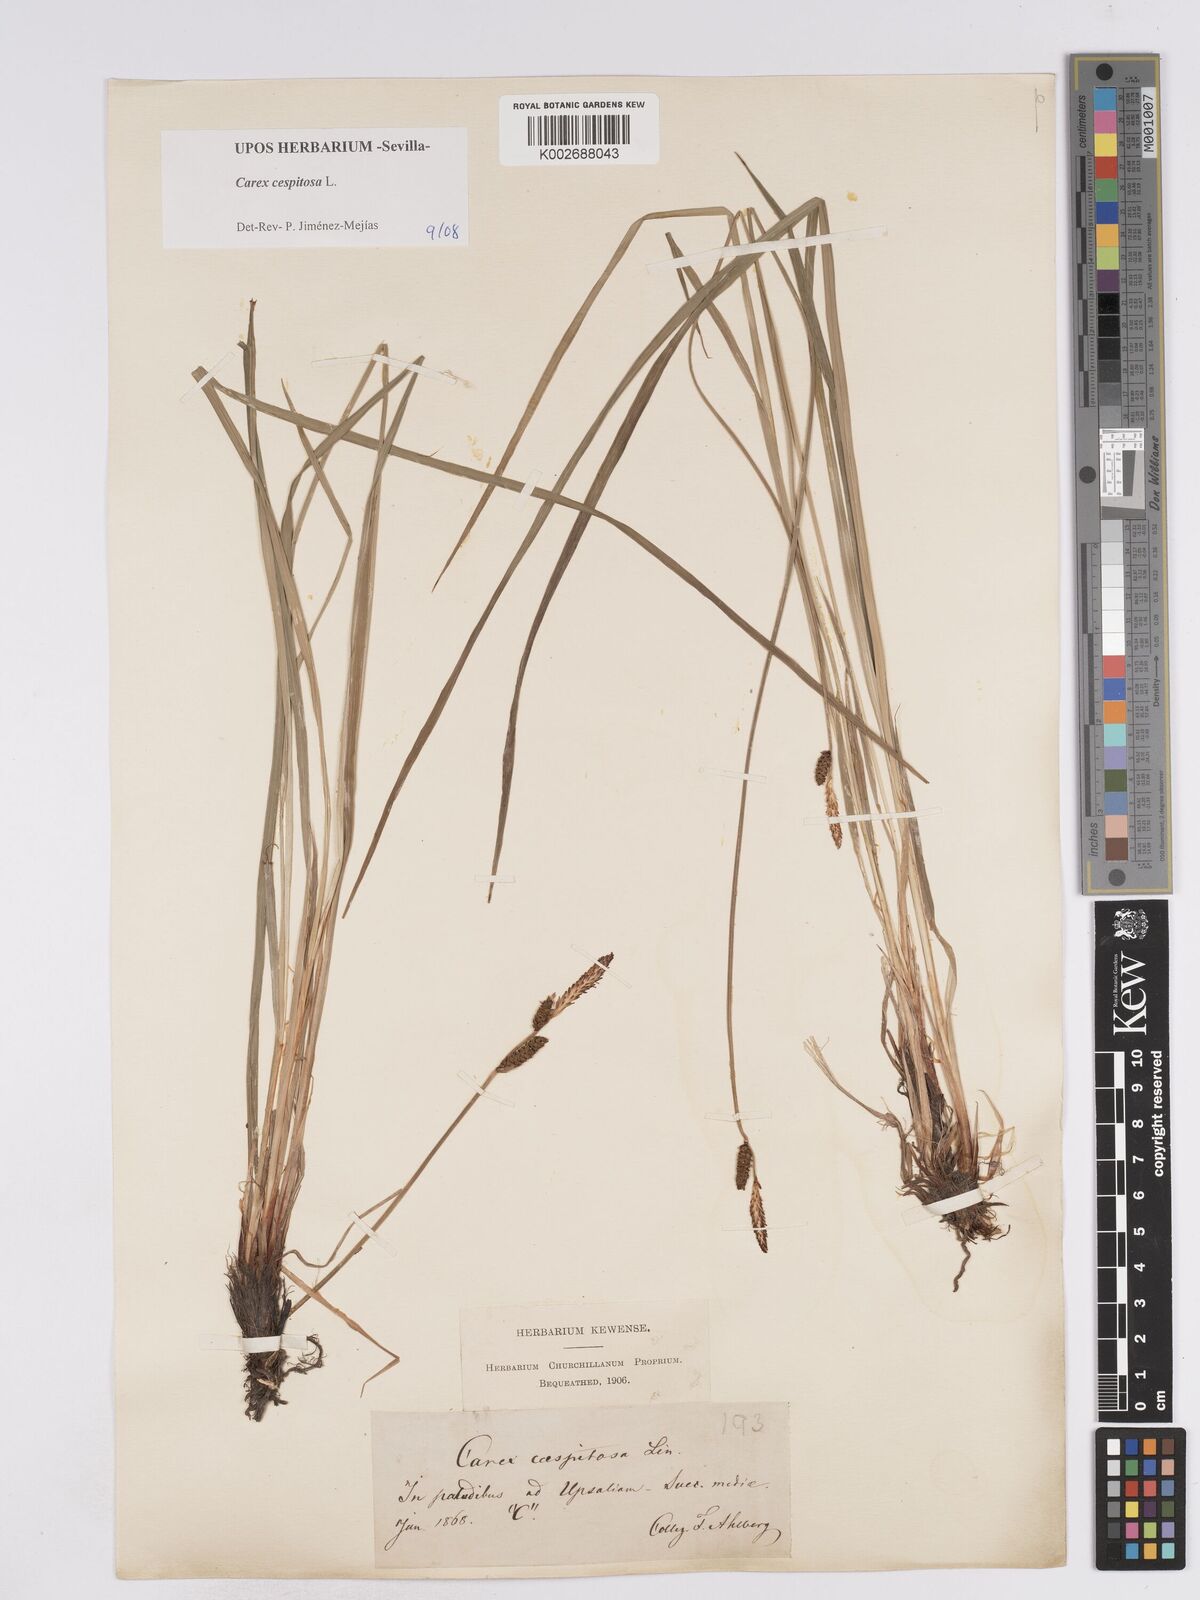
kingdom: Plantae
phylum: Tracheophyta
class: Liliopsida
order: Poales
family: Cyperaceae
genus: Carex
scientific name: Carex
